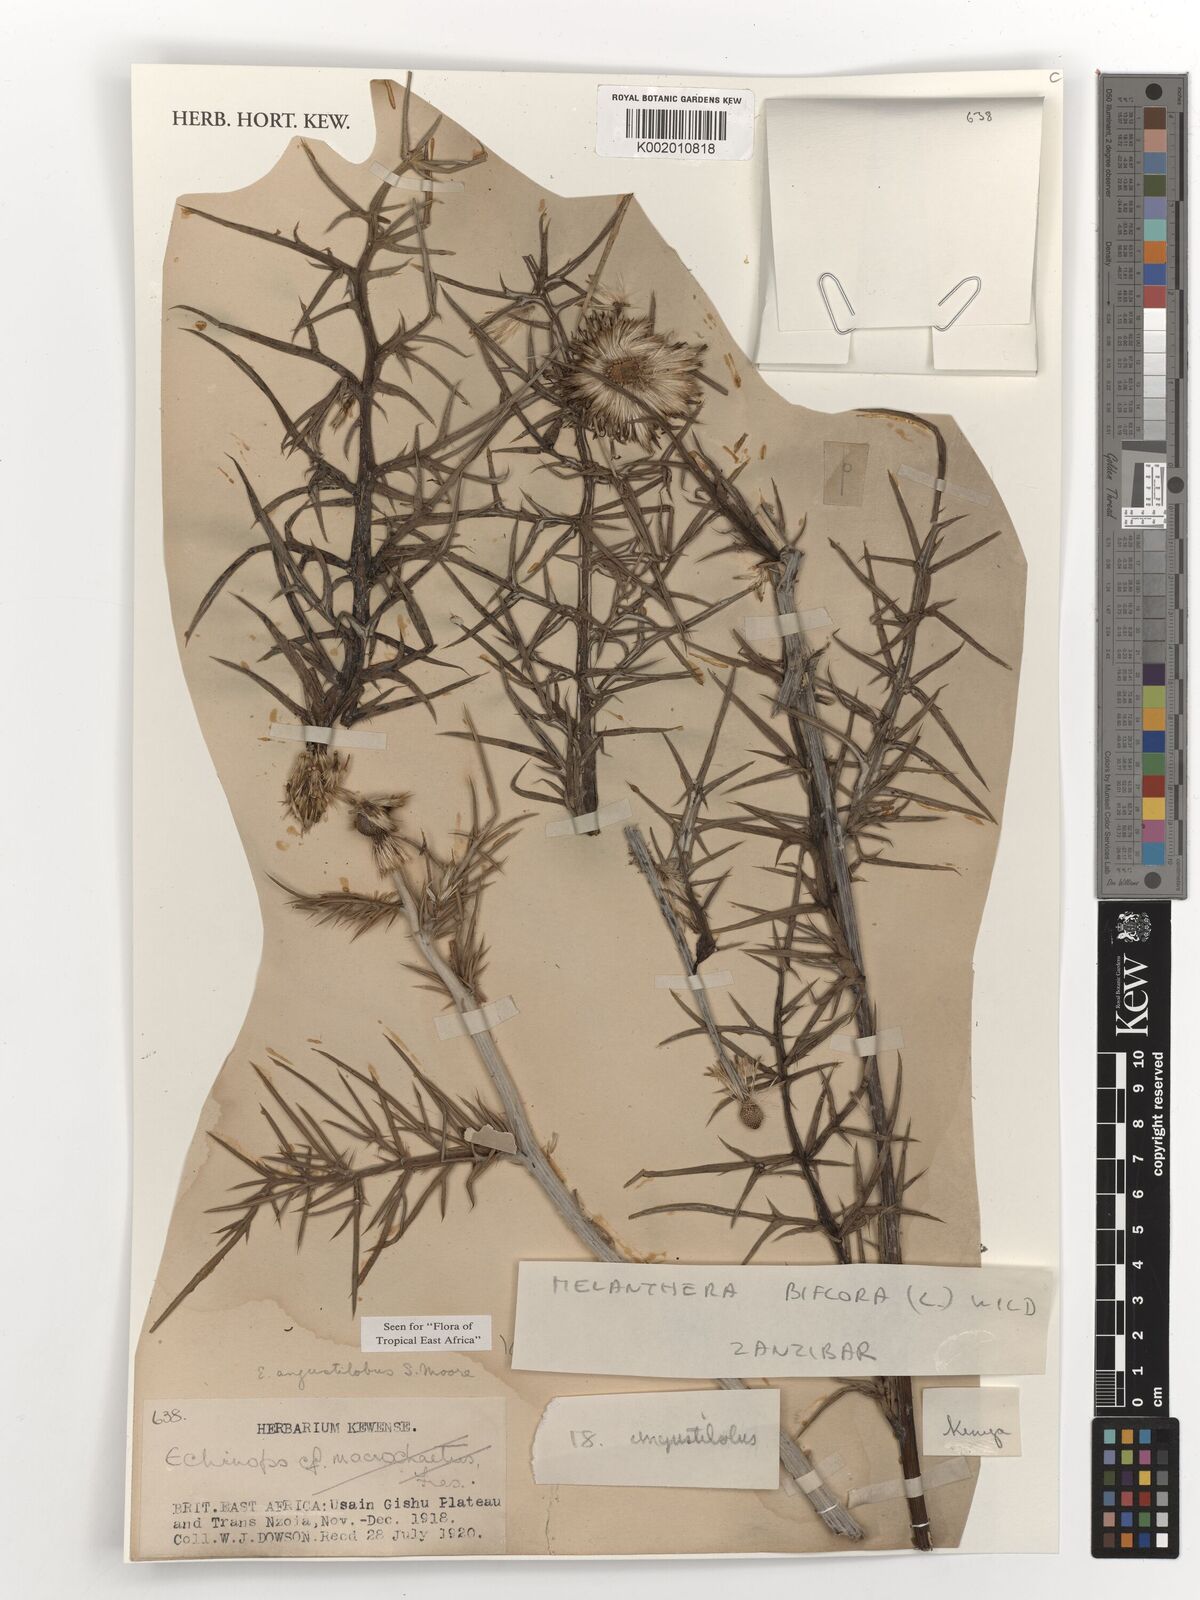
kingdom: Plantae
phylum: Tracheophyta
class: Magnoliopsida
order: Asterales
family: Asteraceae
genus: Echinops
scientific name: Echinops angustilobus
